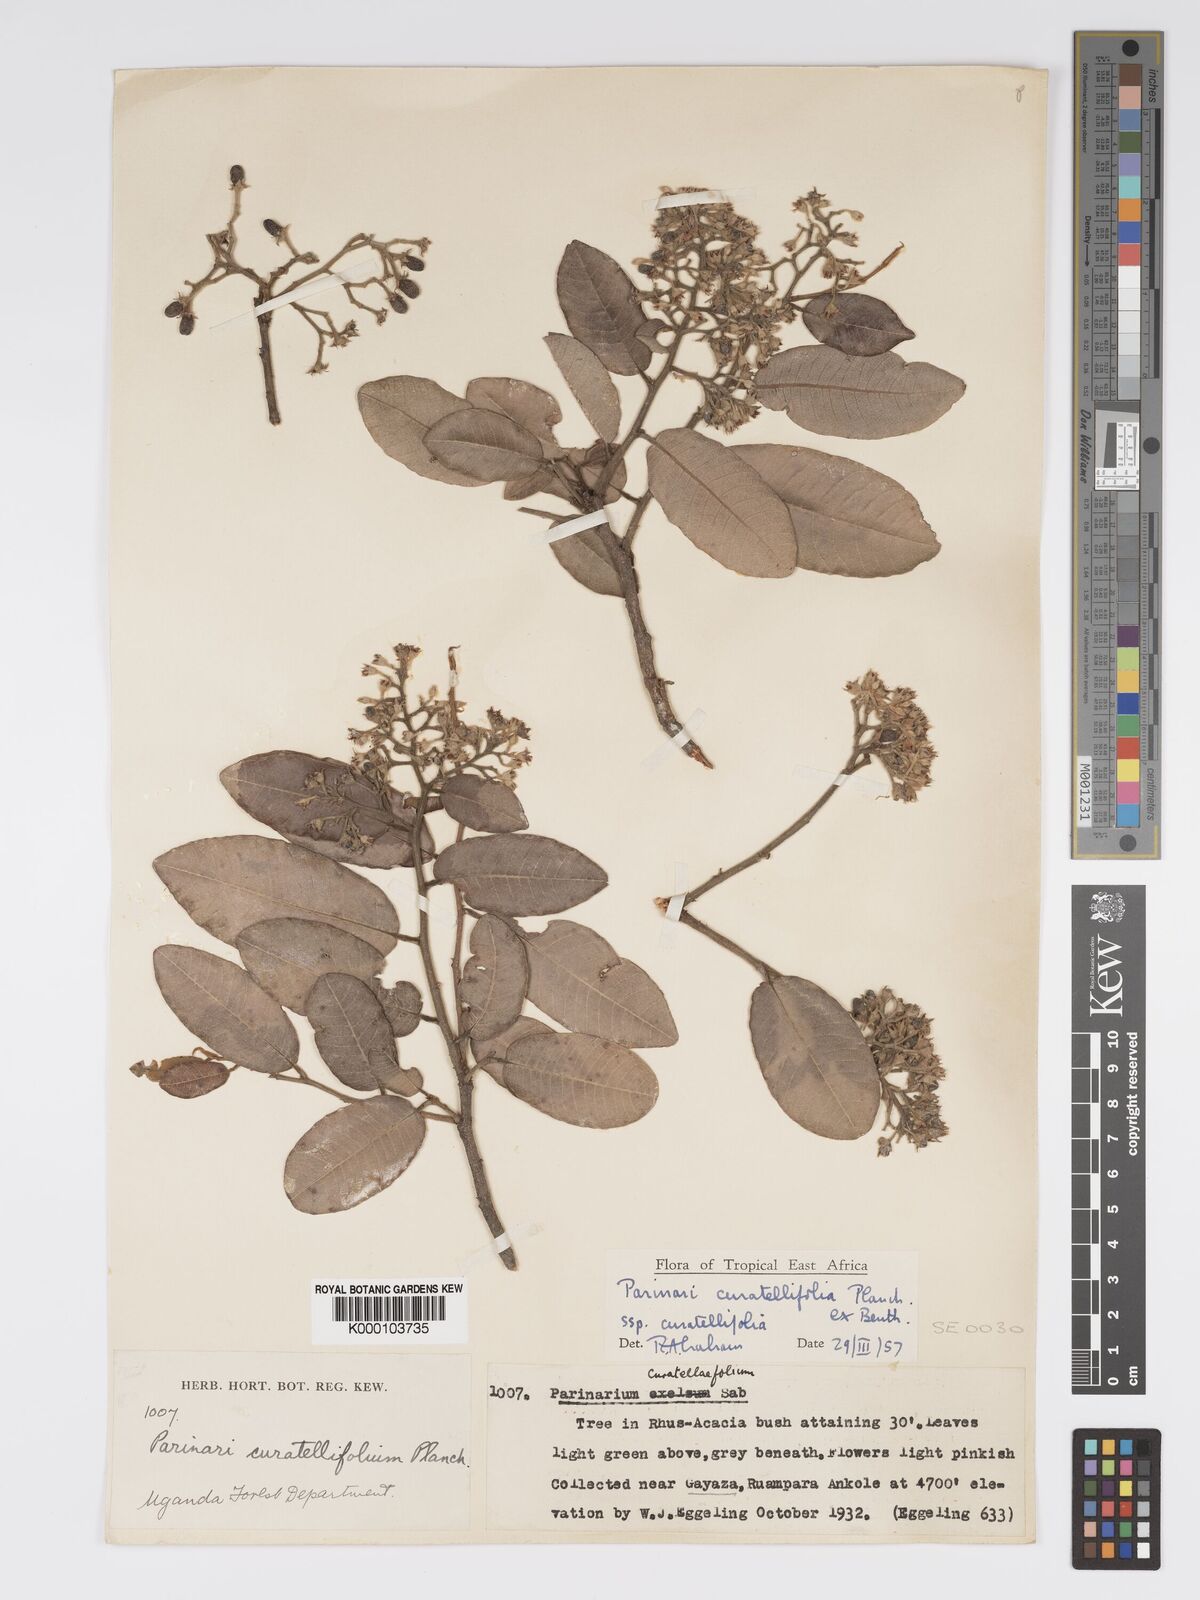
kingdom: Plantae
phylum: Tracheophyta
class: Magnoliopsida
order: Malpighiales
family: Chrysobalanaceae
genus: Parinari
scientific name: Parinari curatellifolia
